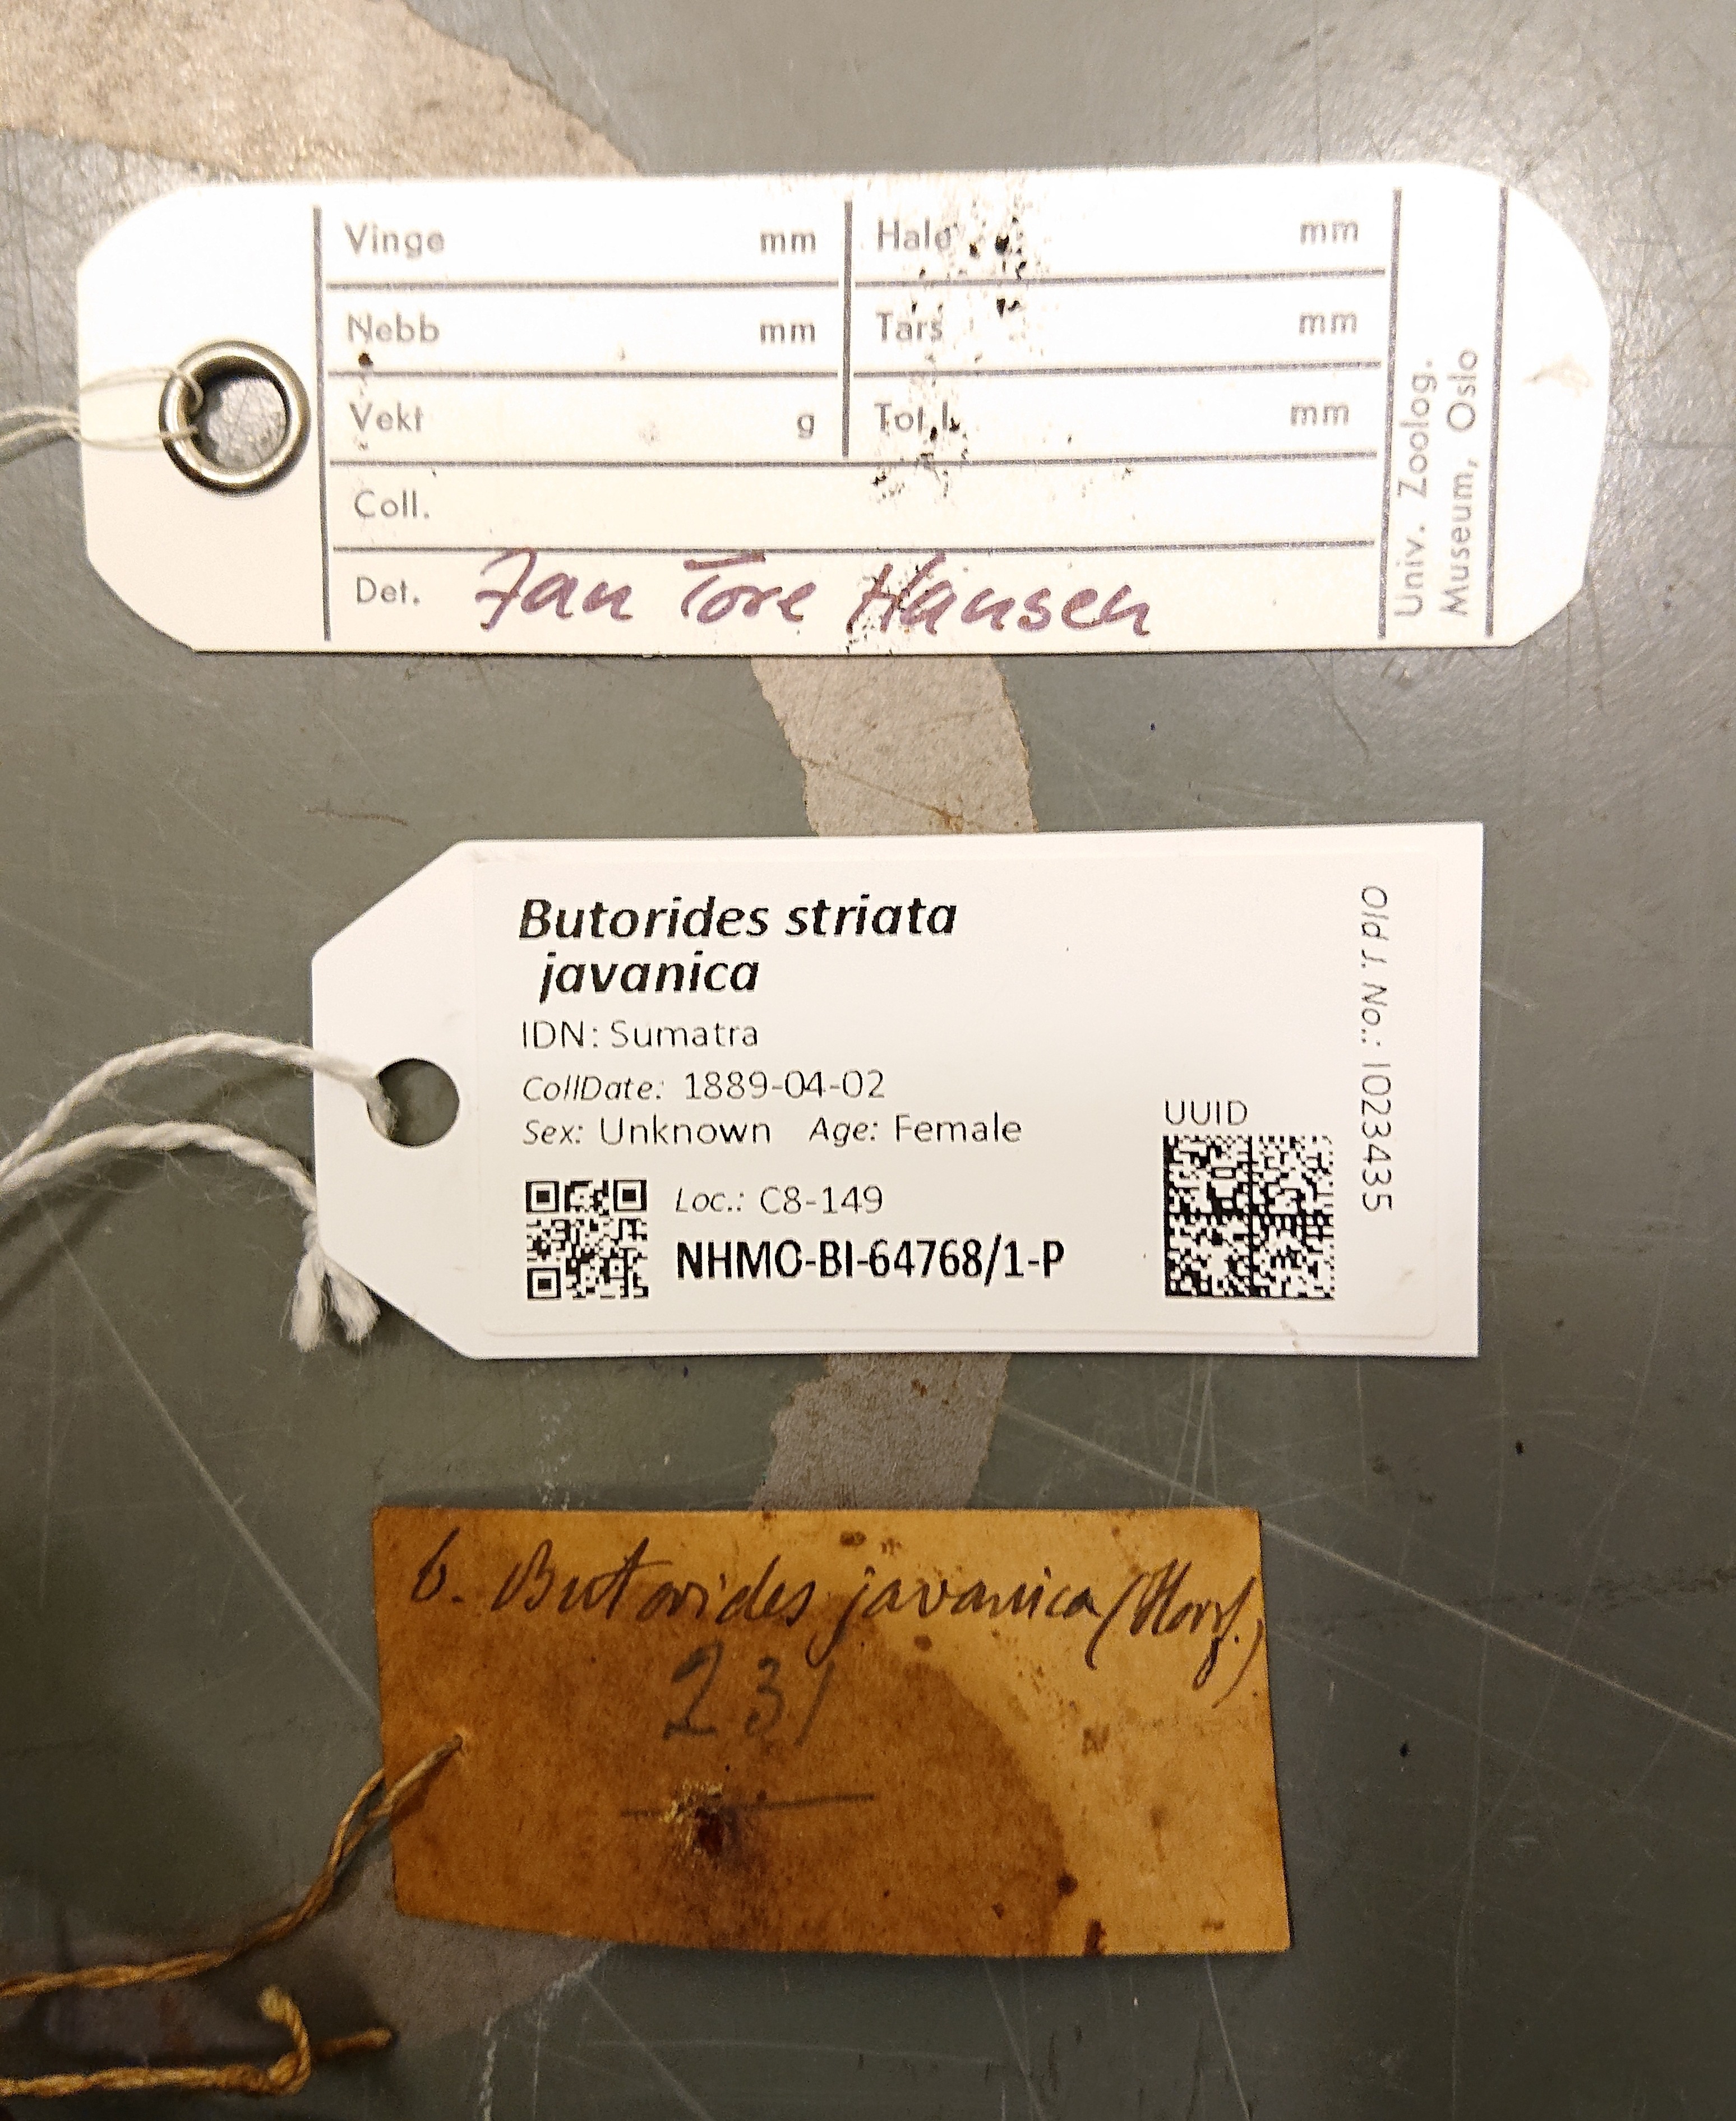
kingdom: Animalia
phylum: Chordata
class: Aves
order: Pelecaniformes
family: Ardeidae
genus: Butorides
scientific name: Butorides striata
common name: Striated heron
